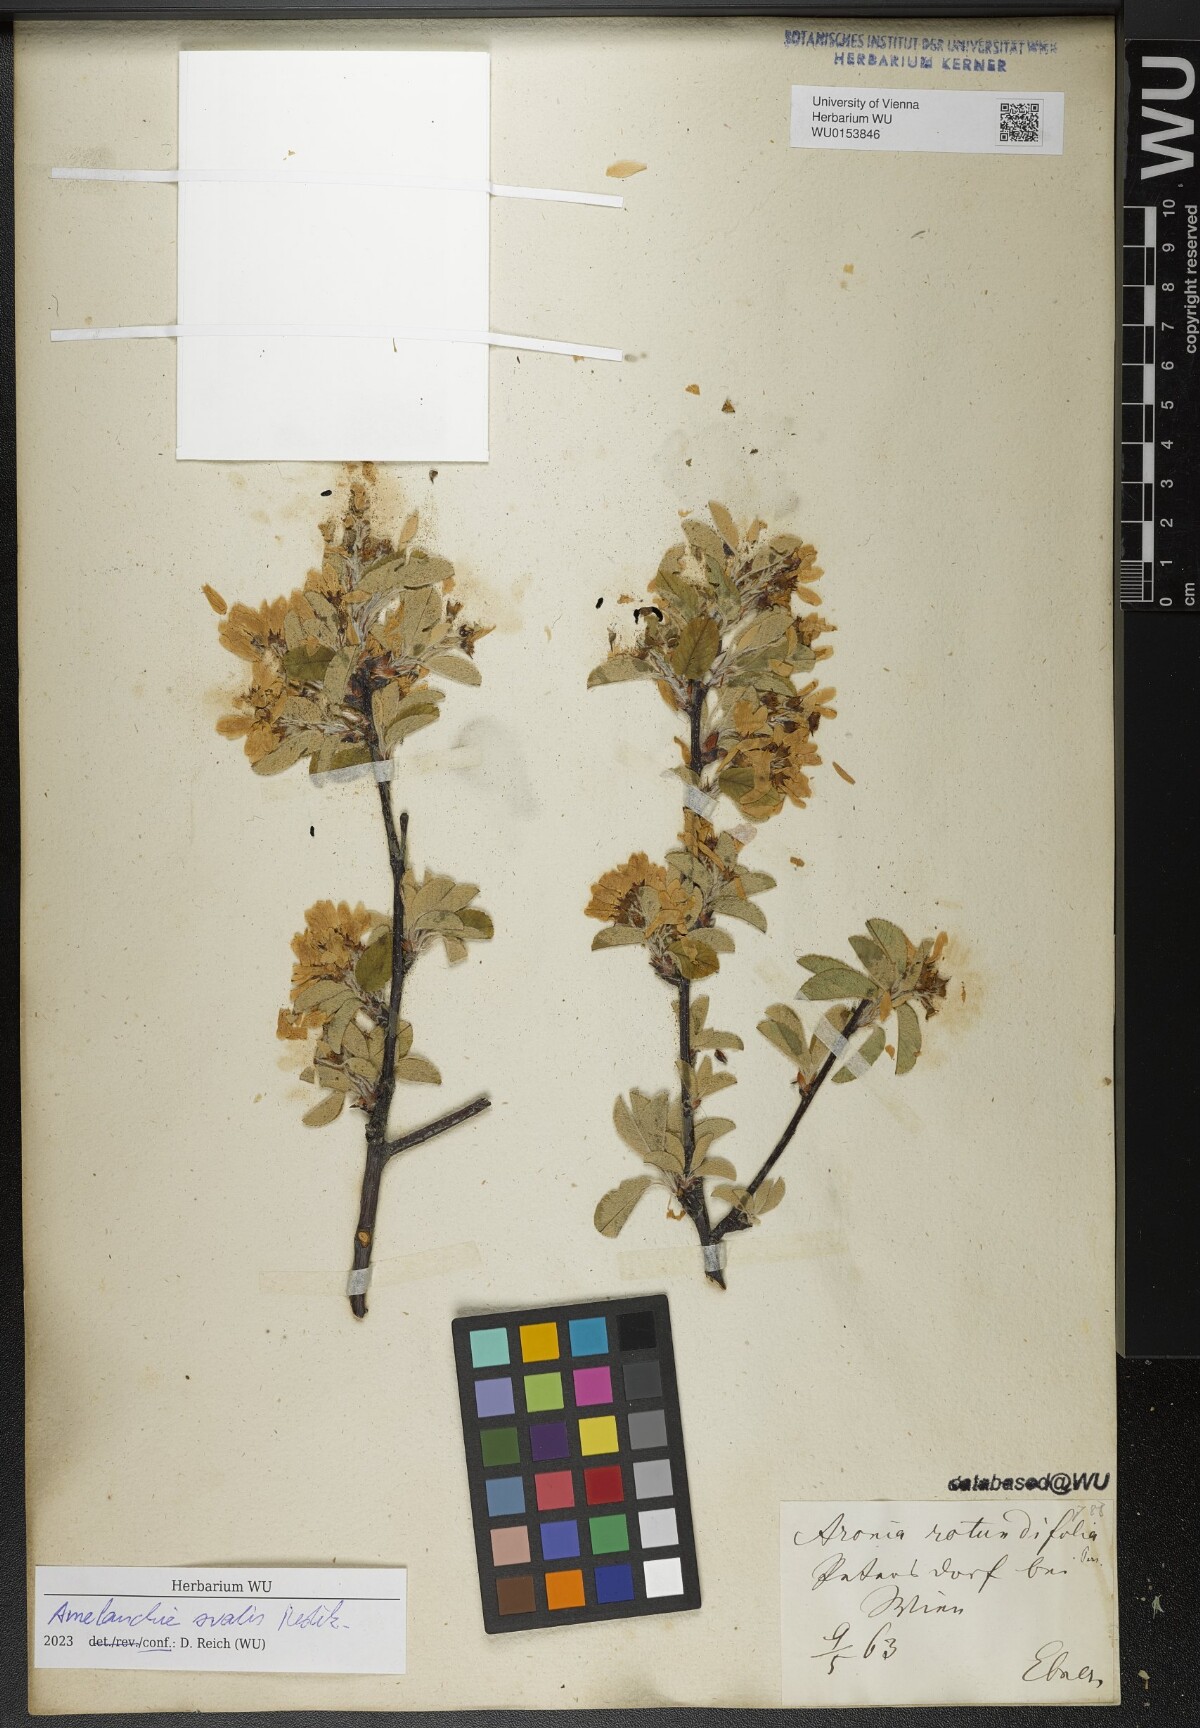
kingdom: Plantae
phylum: Tracheophyta
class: Magnoliopsida
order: Rosales
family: Rosaceae
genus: Amelanchier
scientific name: Amelanchier ovalis
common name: Serviceberry
